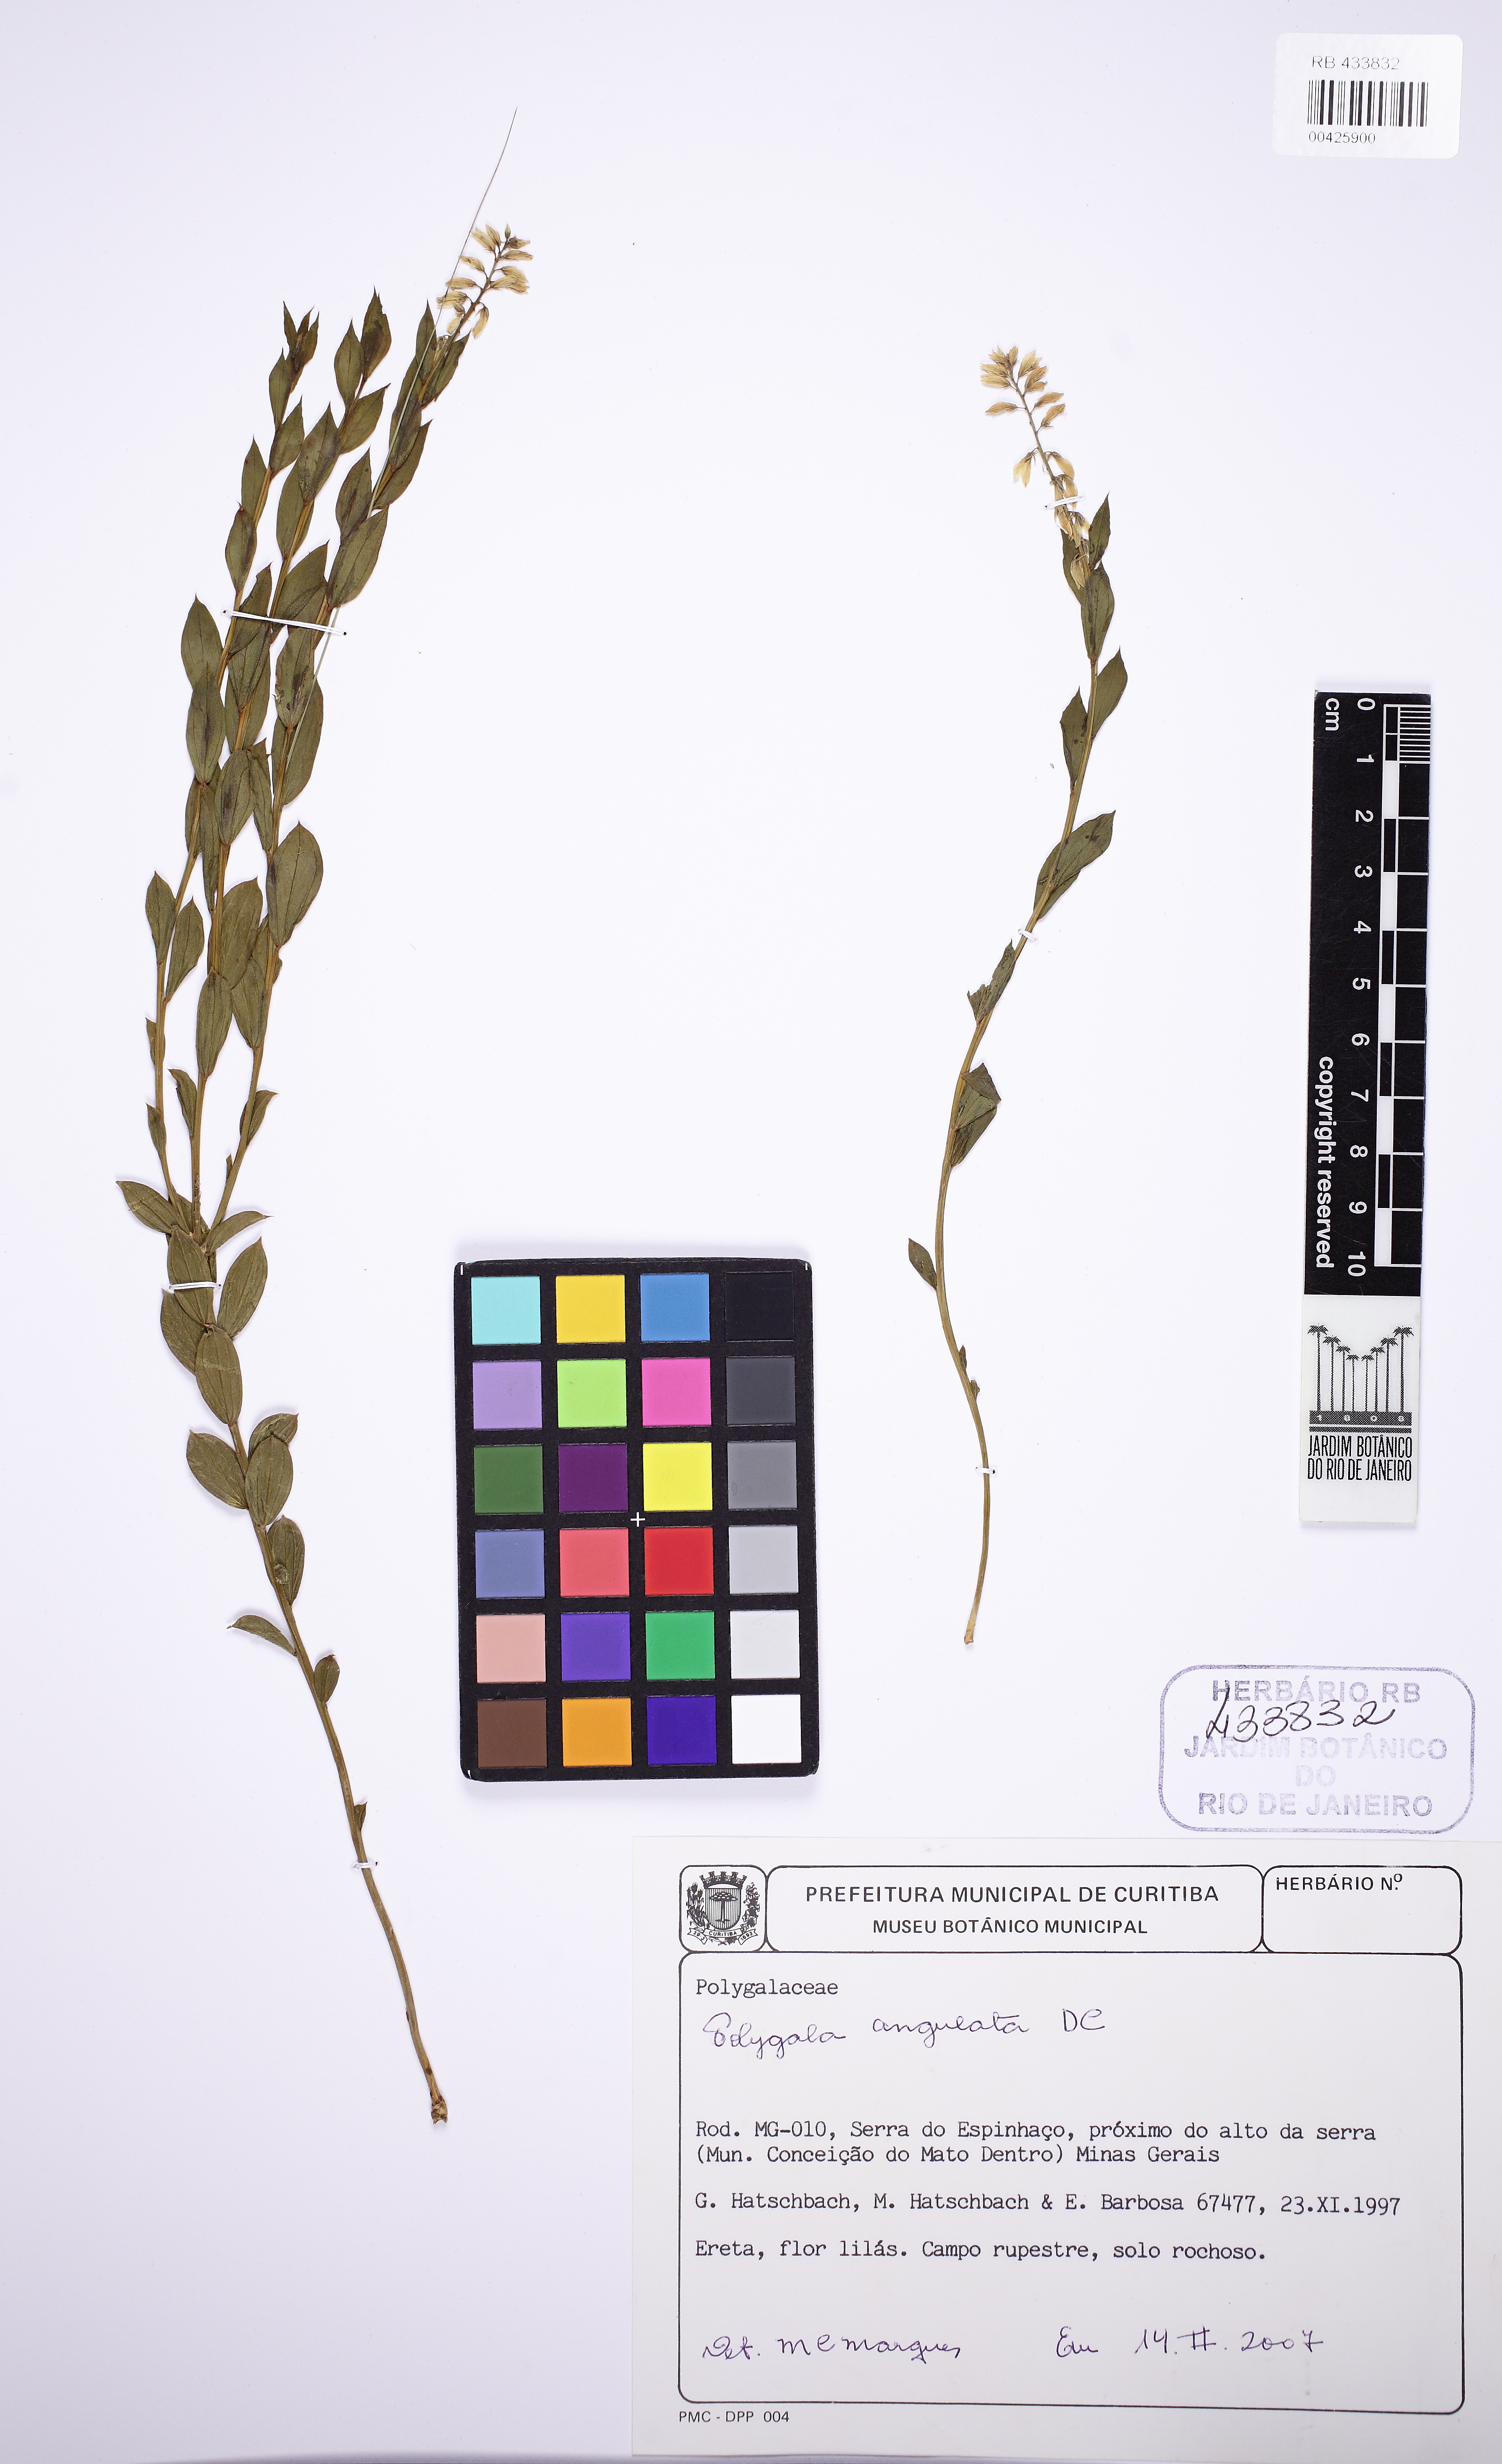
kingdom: Plantae
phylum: Tracheophyta
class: Magnoliopsida
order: Fabales
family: Polygalaceae
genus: Polygala
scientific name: Polygala poaya
